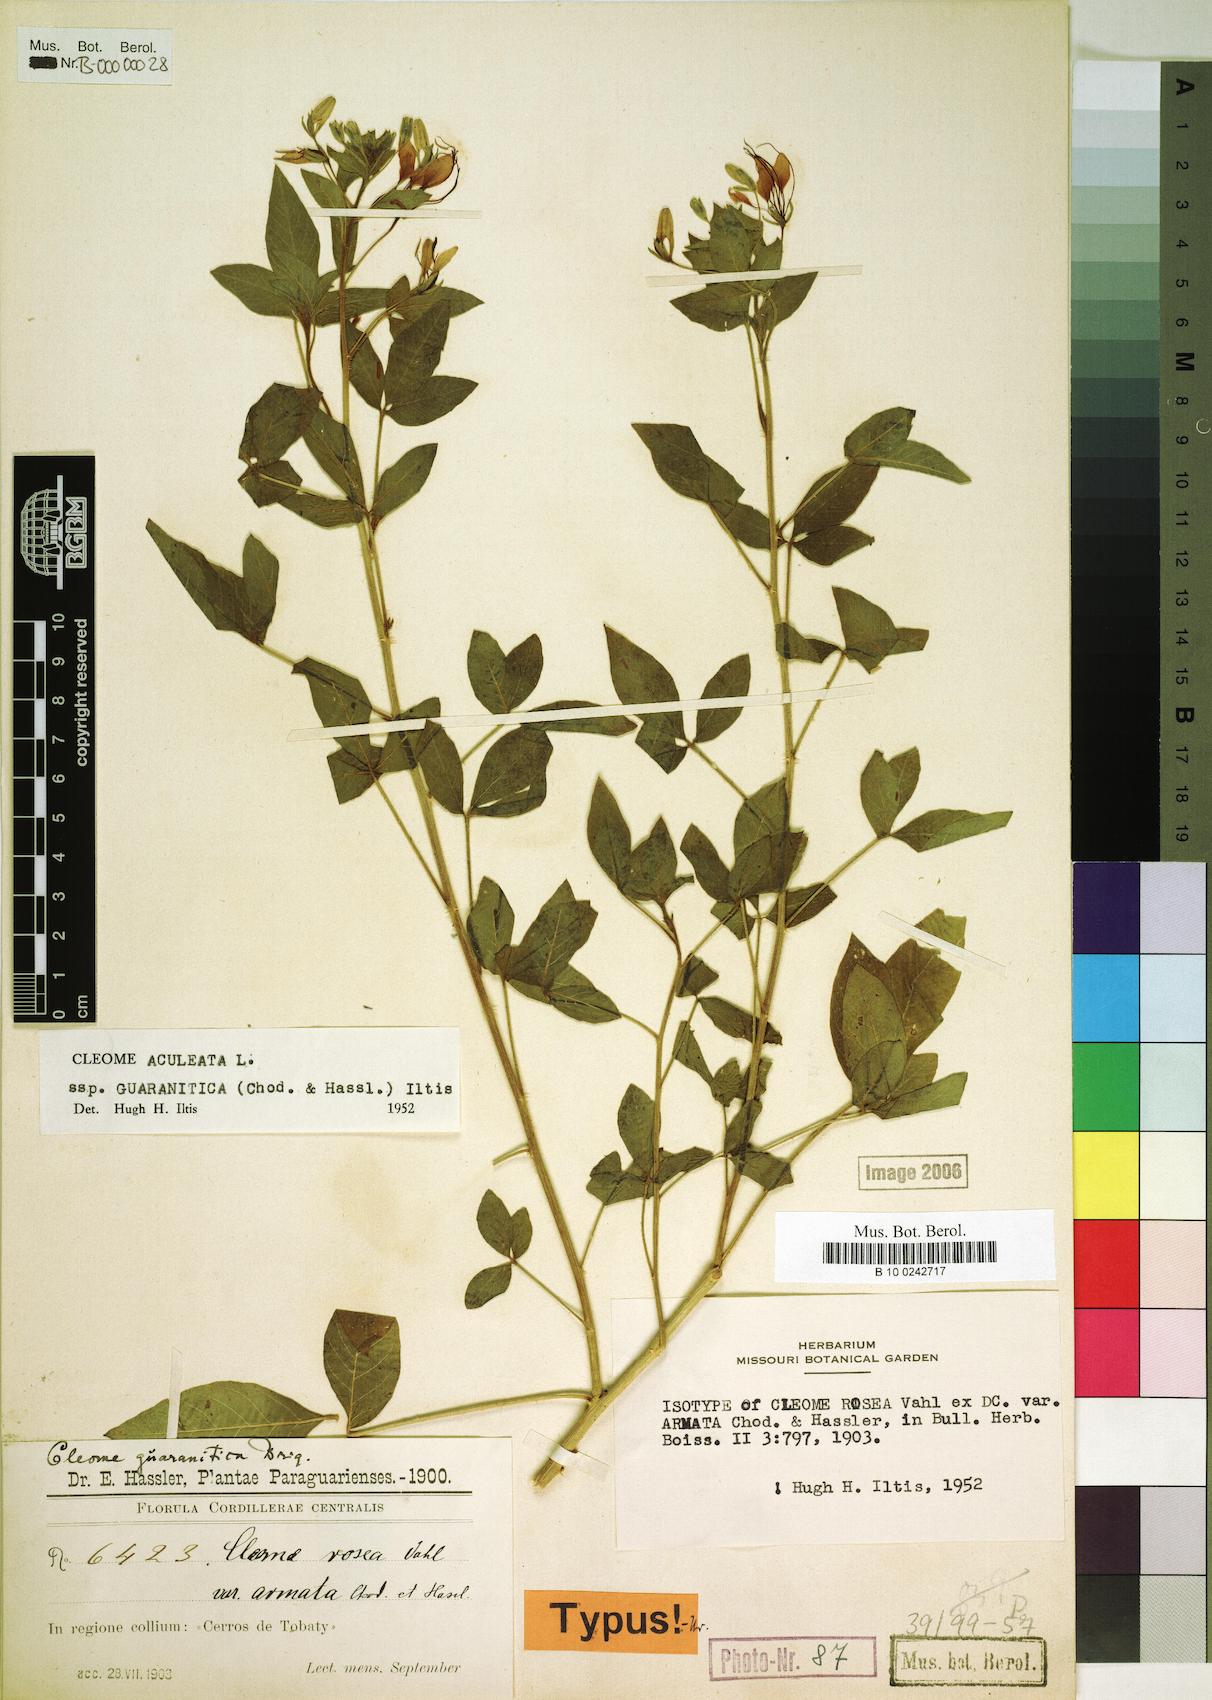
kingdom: Plantae
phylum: Tracheophyta
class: Magnoliopsida
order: Brassicales
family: Cleomaceae
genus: Tarenaya
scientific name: Tarenaya aculeata
